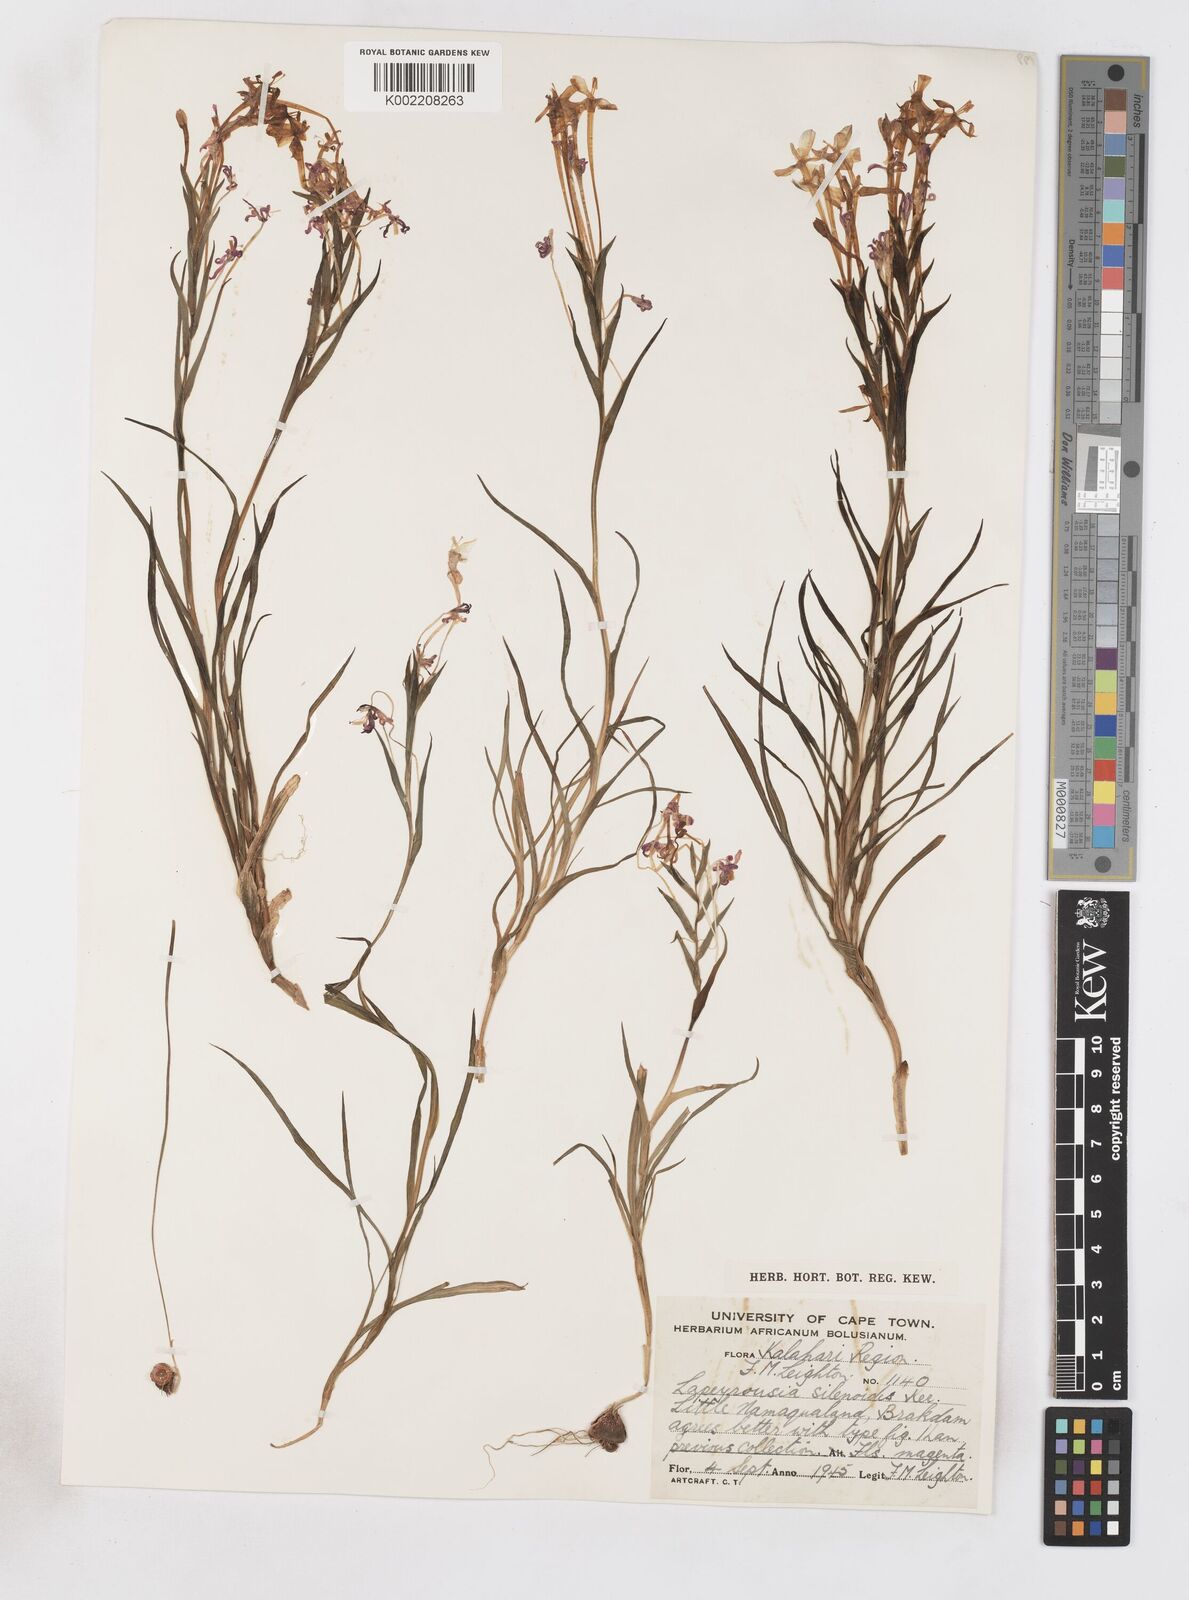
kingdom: Plantae
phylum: Tracheophyta
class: Liliopsida
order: Asparagales
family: Iridaceae
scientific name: Iridaceae
